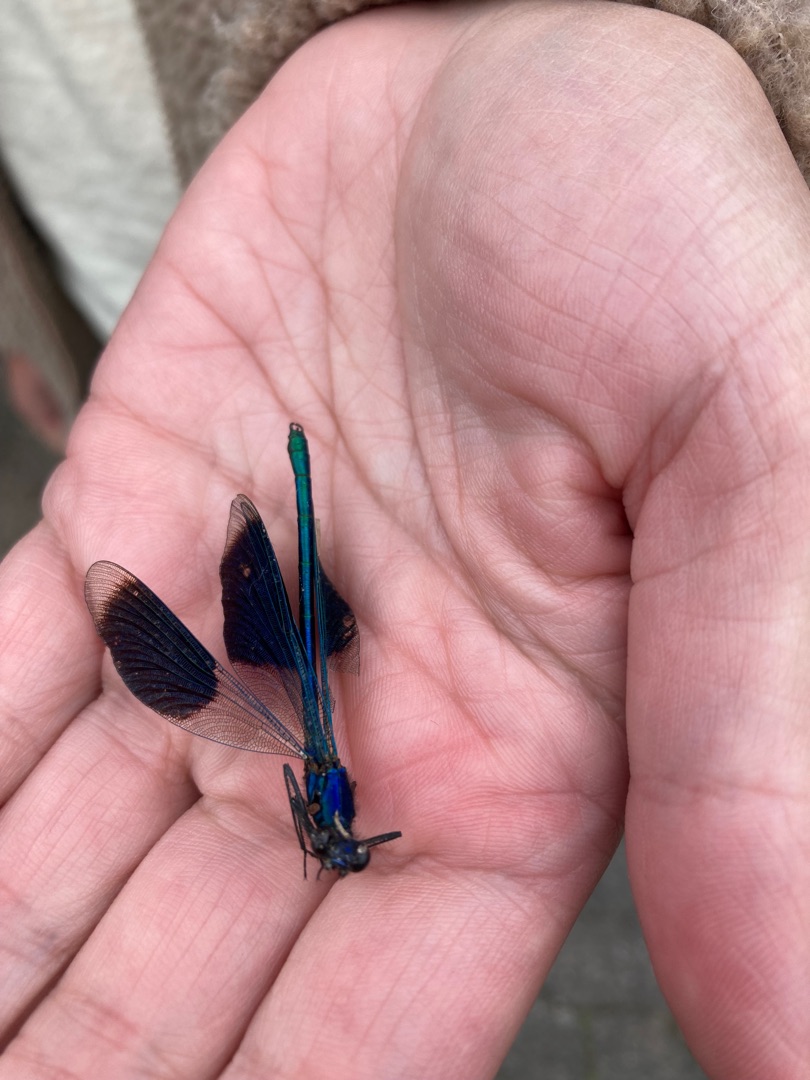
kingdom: Animalia
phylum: Arthropoda
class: Insecta
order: Odonata
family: Calopterygidae
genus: Calopteryx
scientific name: Calopteryx splendens
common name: Blåbåndet pragtvandnymfe
